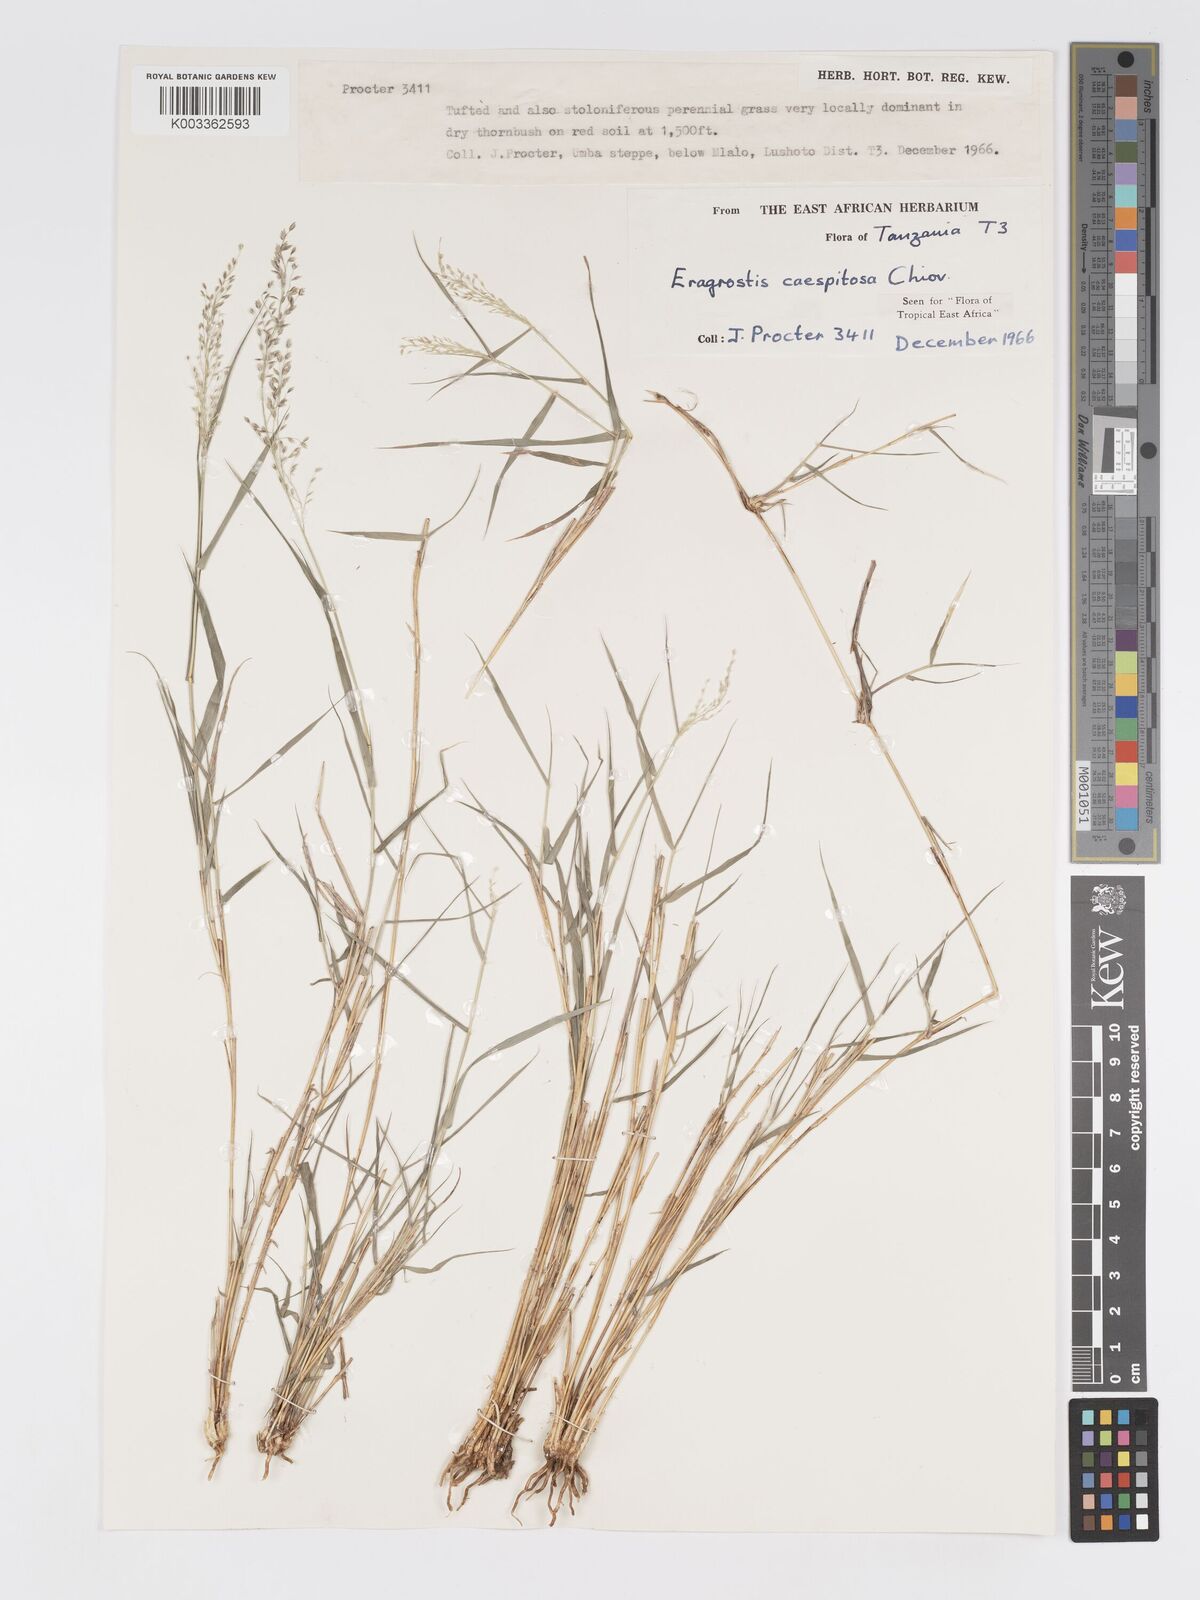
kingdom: Plantae
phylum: Tracheophyta
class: Liliopsida
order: Poales
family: Poaceae
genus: Eragrostis
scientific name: Eragrostis caespitosa
